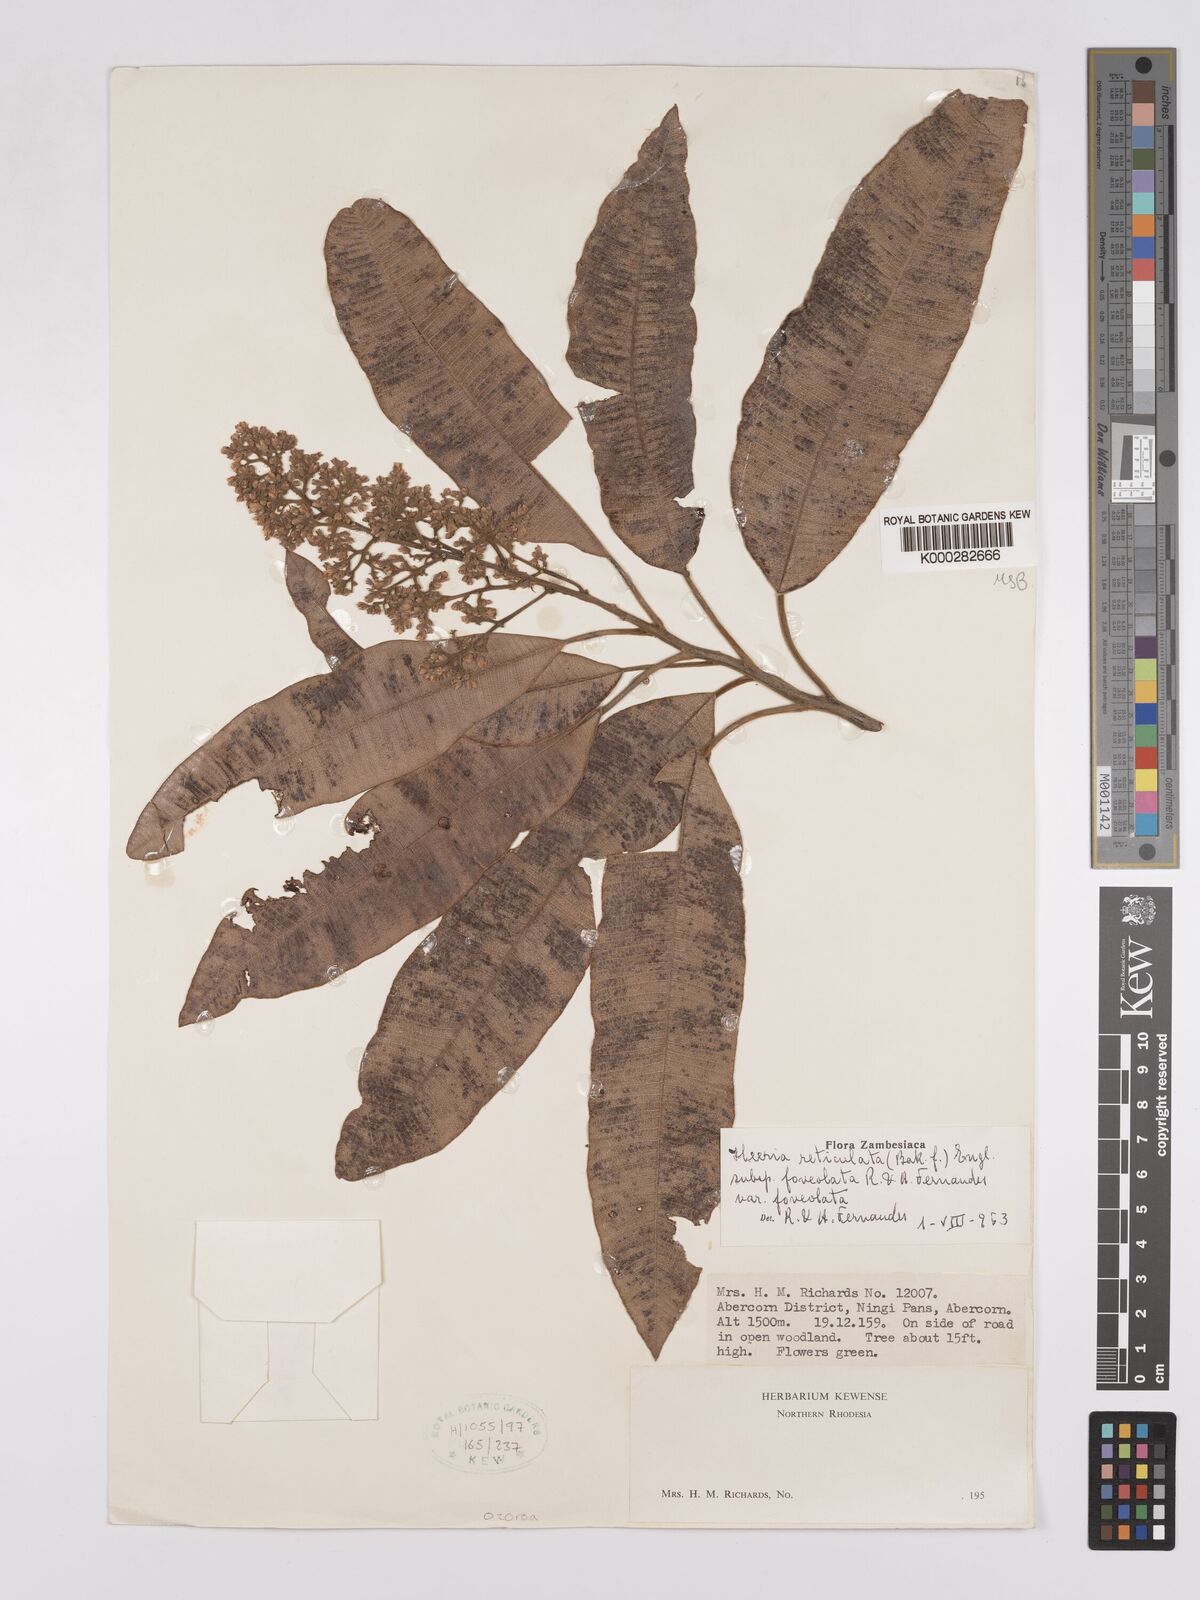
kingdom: Plantae
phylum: Tracheophyta
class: Magnoliopsida
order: Sapindales
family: Anacardiaceae
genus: Ozoroa
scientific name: Ozoroa insignis
